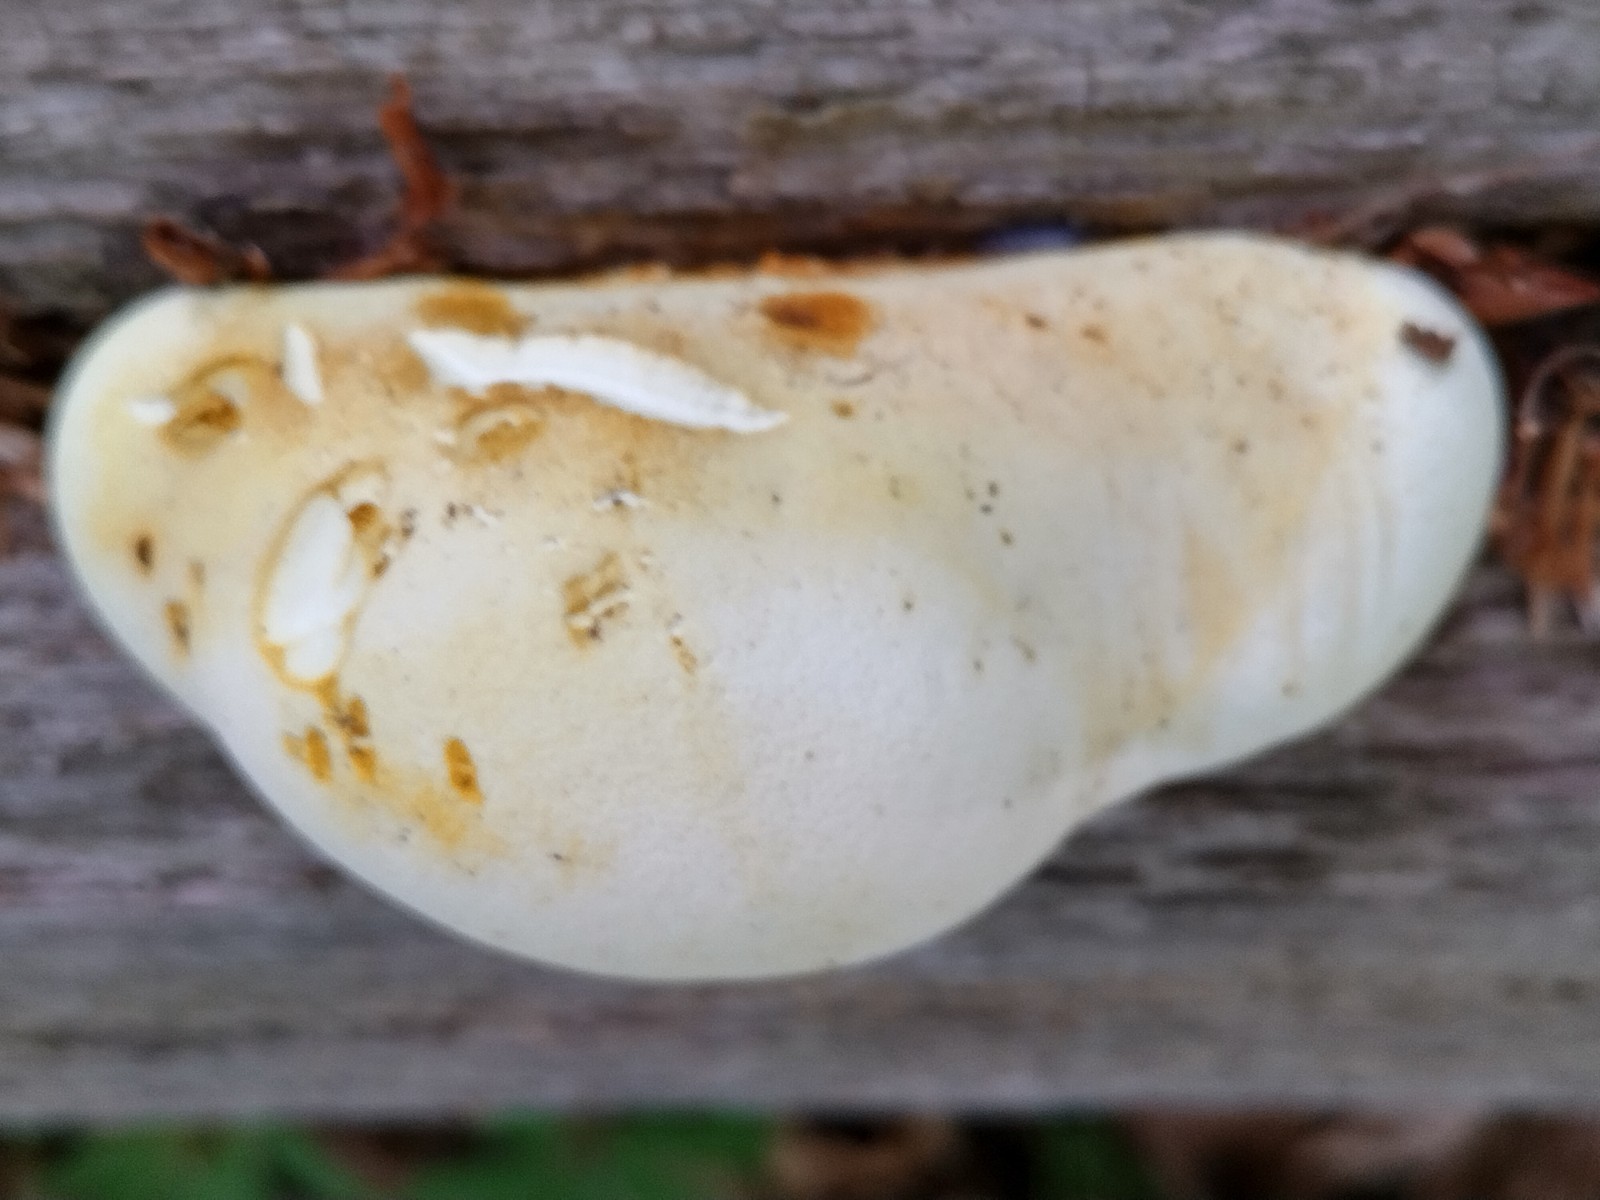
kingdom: Fungi
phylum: Basidiomycota
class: Agaricomycetes
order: Polyporales
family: Fomitopsidaceae
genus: Buglossoporus
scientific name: Buglossoporus quercinus
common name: egetunge
